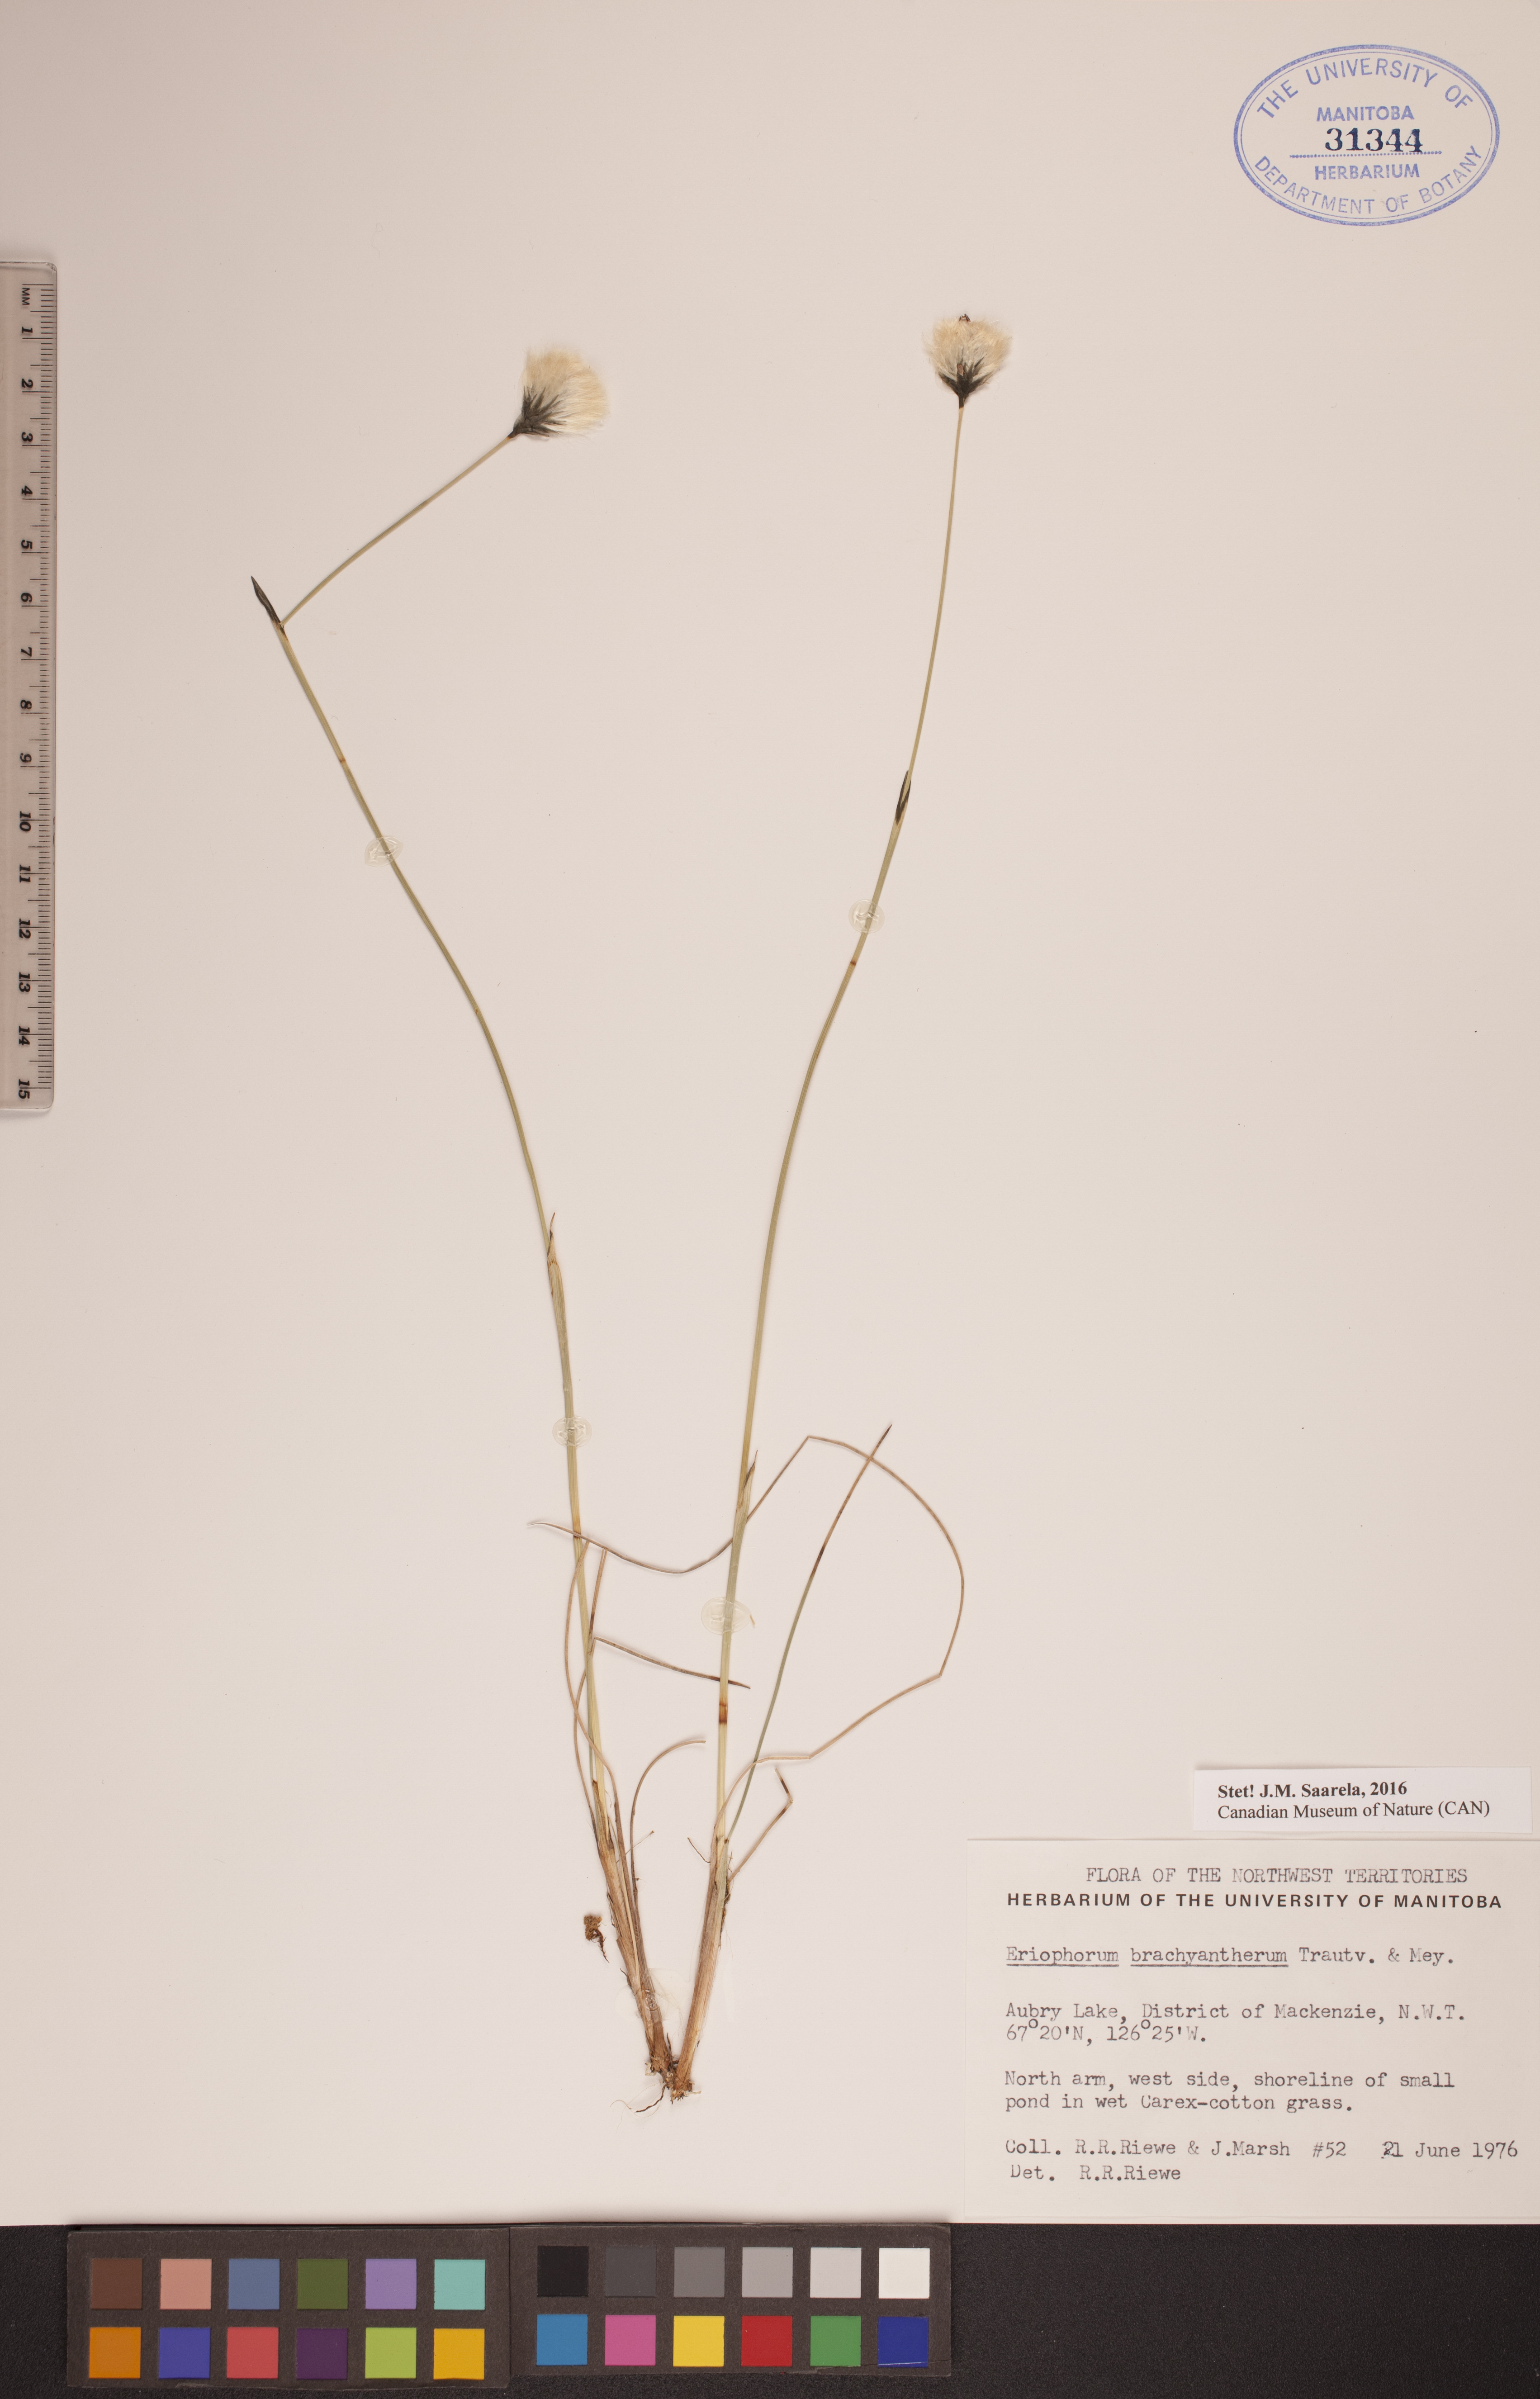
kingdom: Plantae
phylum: Tracheophyta
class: Liliopsida
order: Poales
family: Cyperaceae
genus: Eriophorum
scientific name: Eriophorum brachyantherum
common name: Closed-sheathed cottongrass
